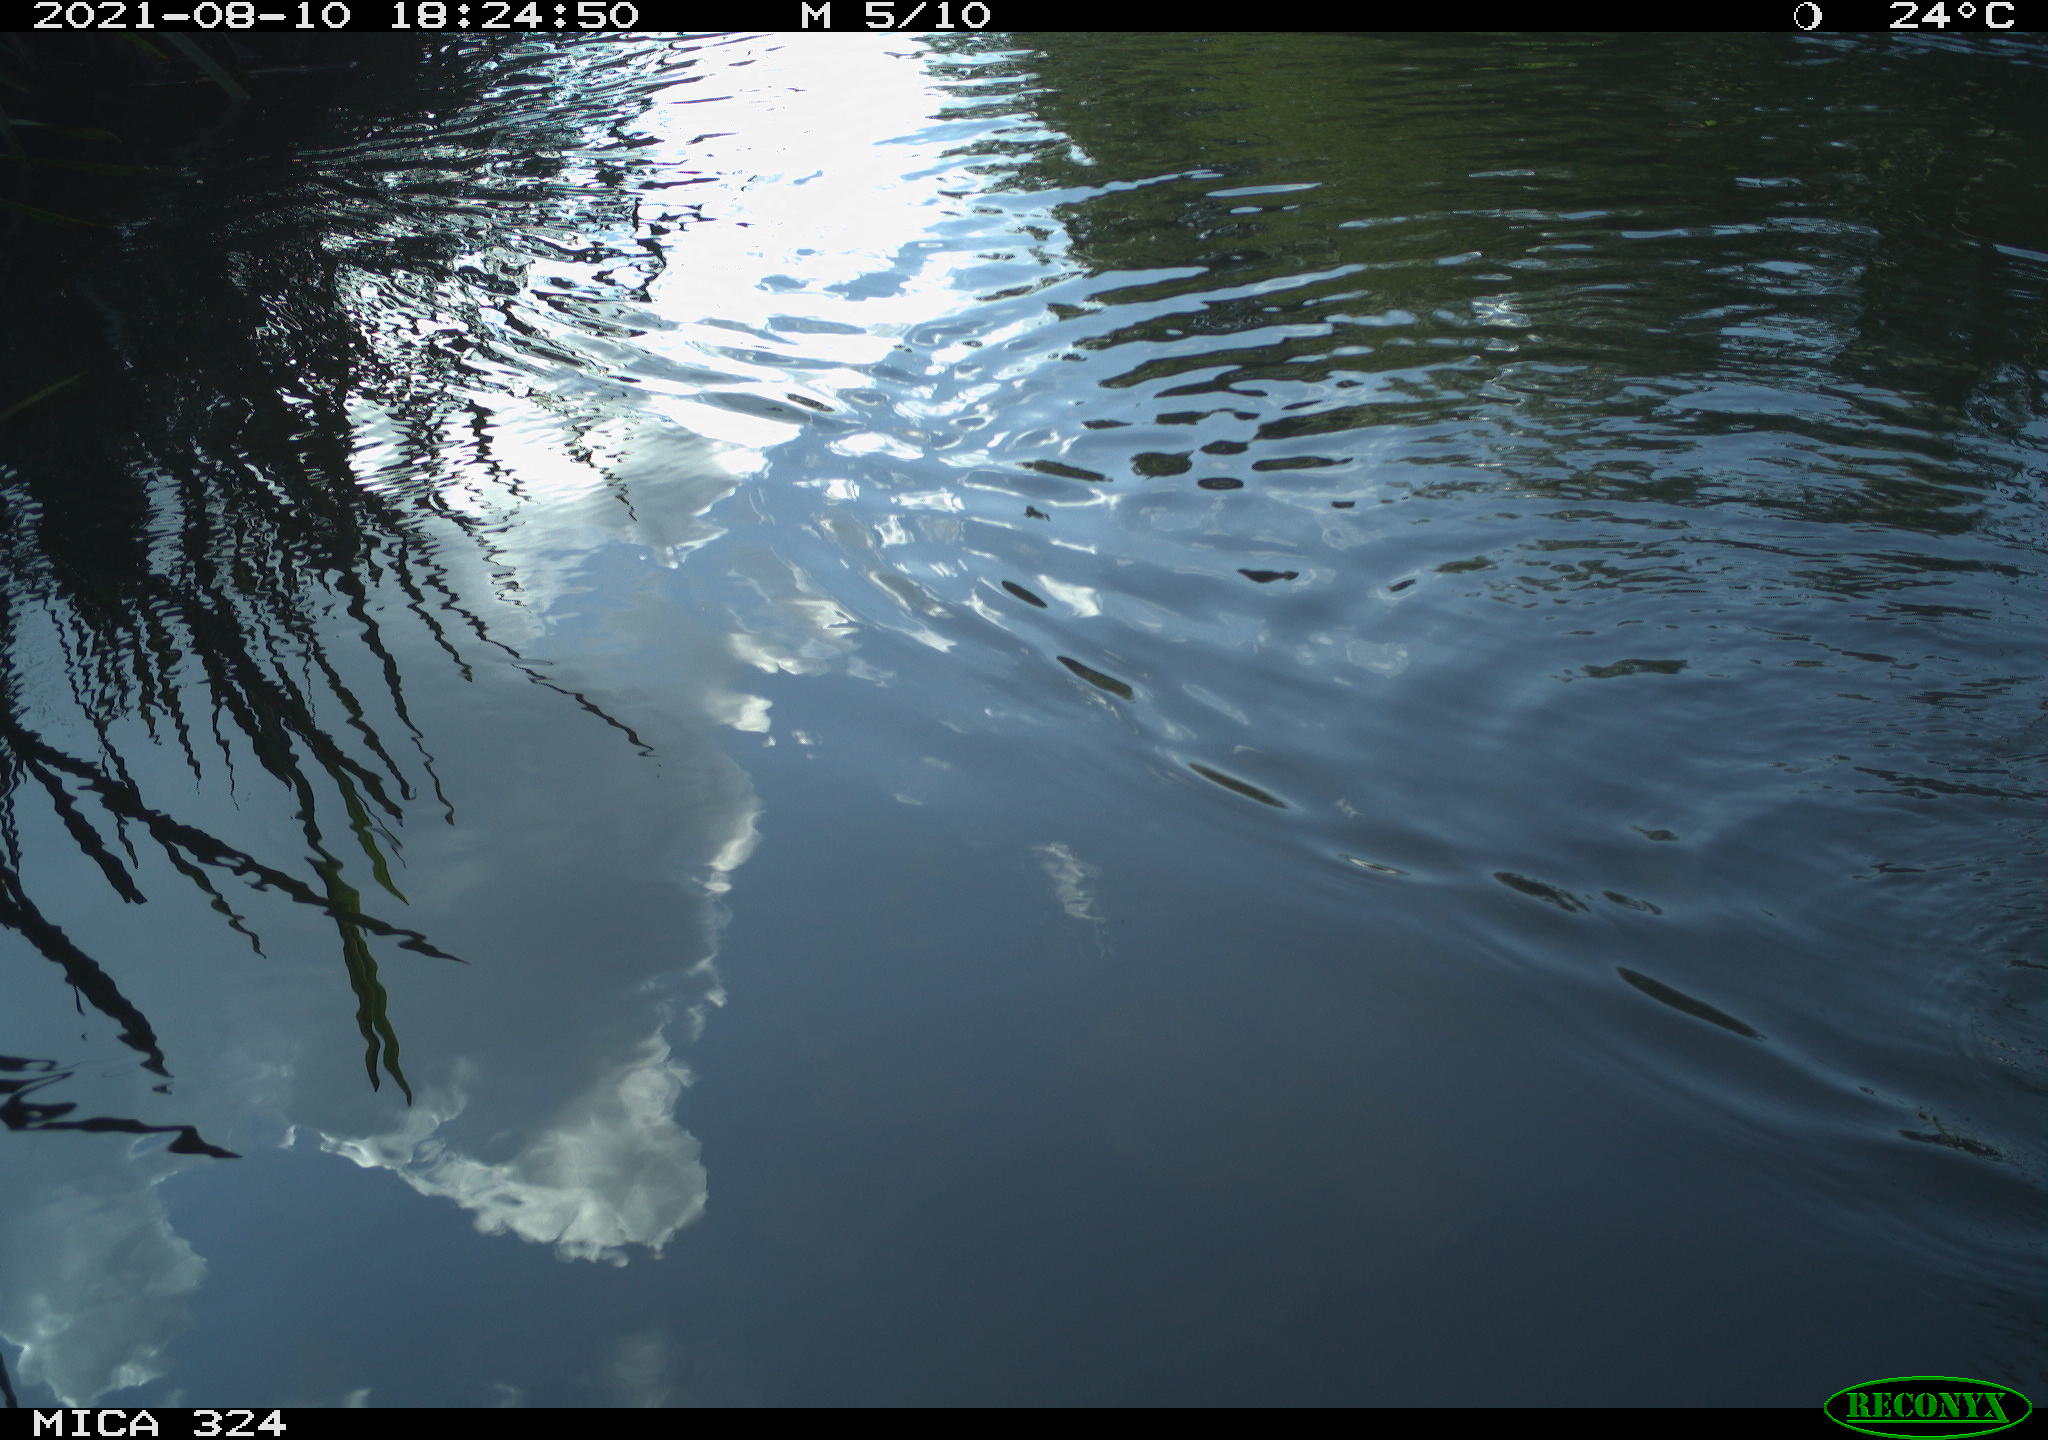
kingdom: Animalia
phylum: Chordata
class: Mammalia
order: Rodentia
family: Cricetidae
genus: Ondatra
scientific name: Ondatra zibethicus
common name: Muskrat
